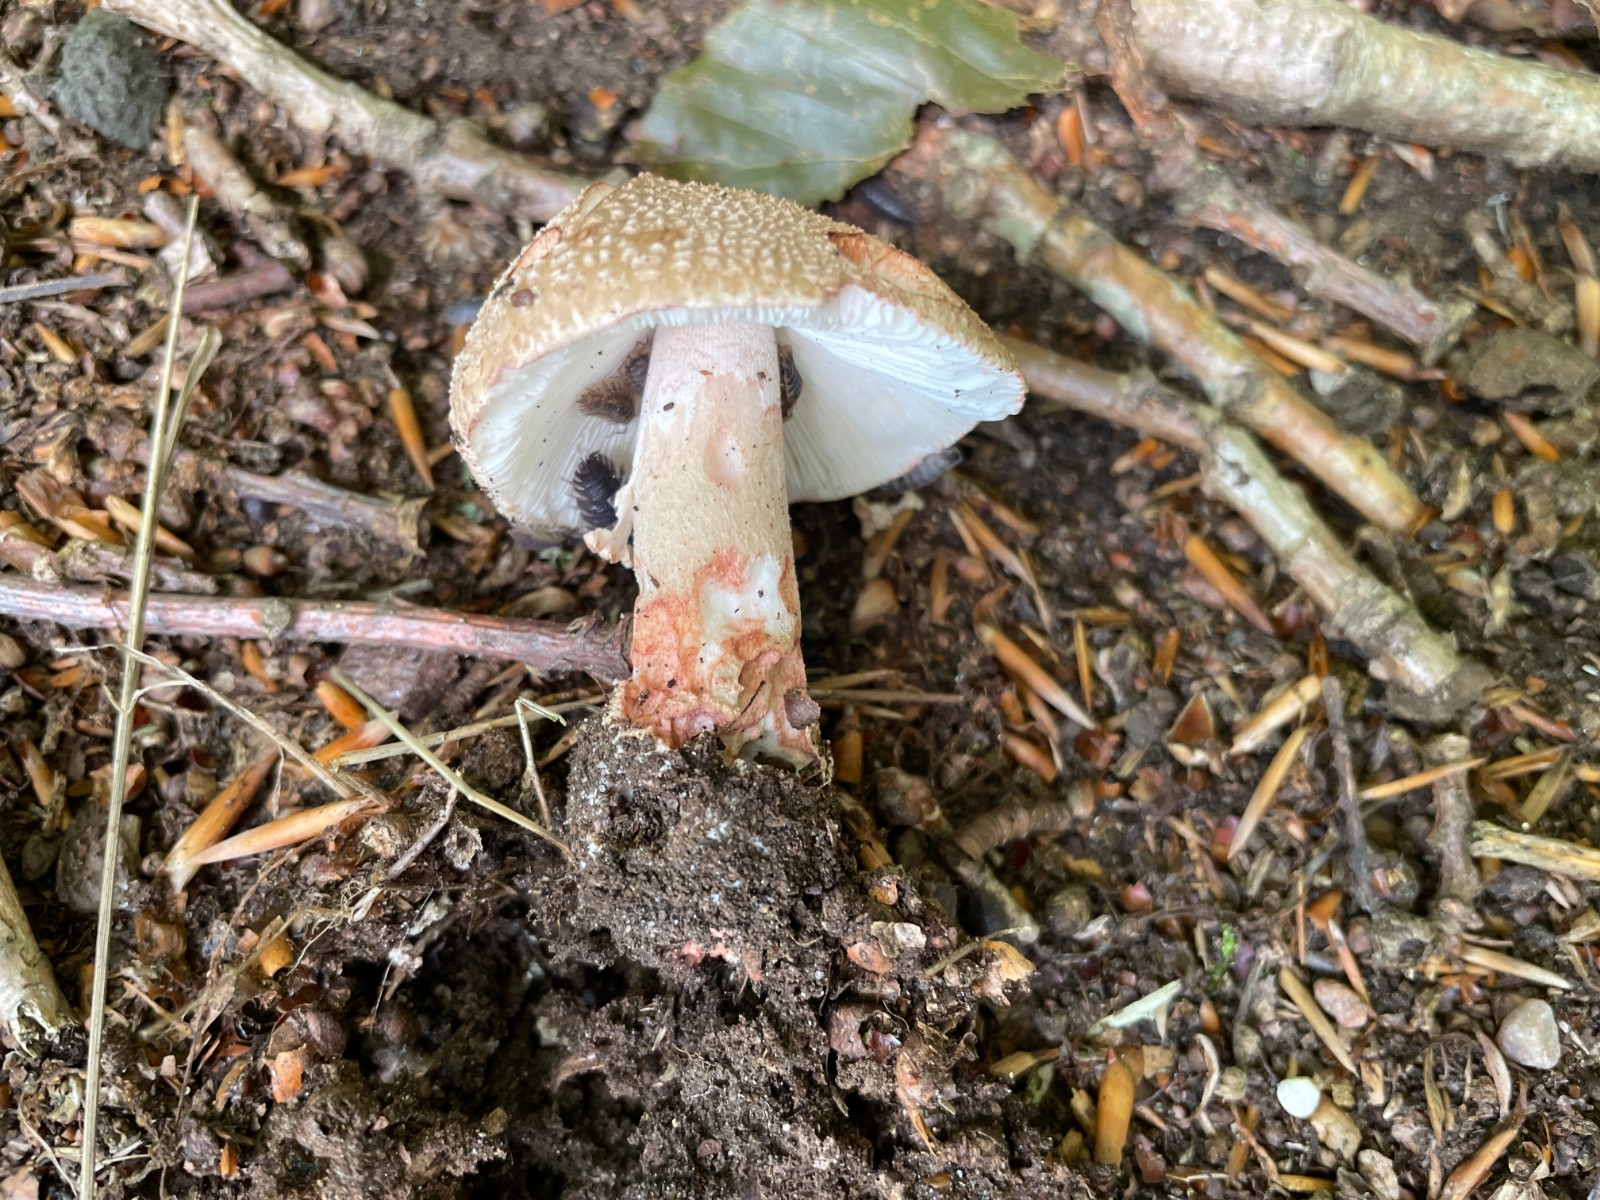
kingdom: Fungi
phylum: Basidiomycota
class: Agaricomycetes
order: Agaricales
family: Amanitaceae
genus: Amanita
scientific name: Amanita rubescens
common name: rødmende fluesvamp
